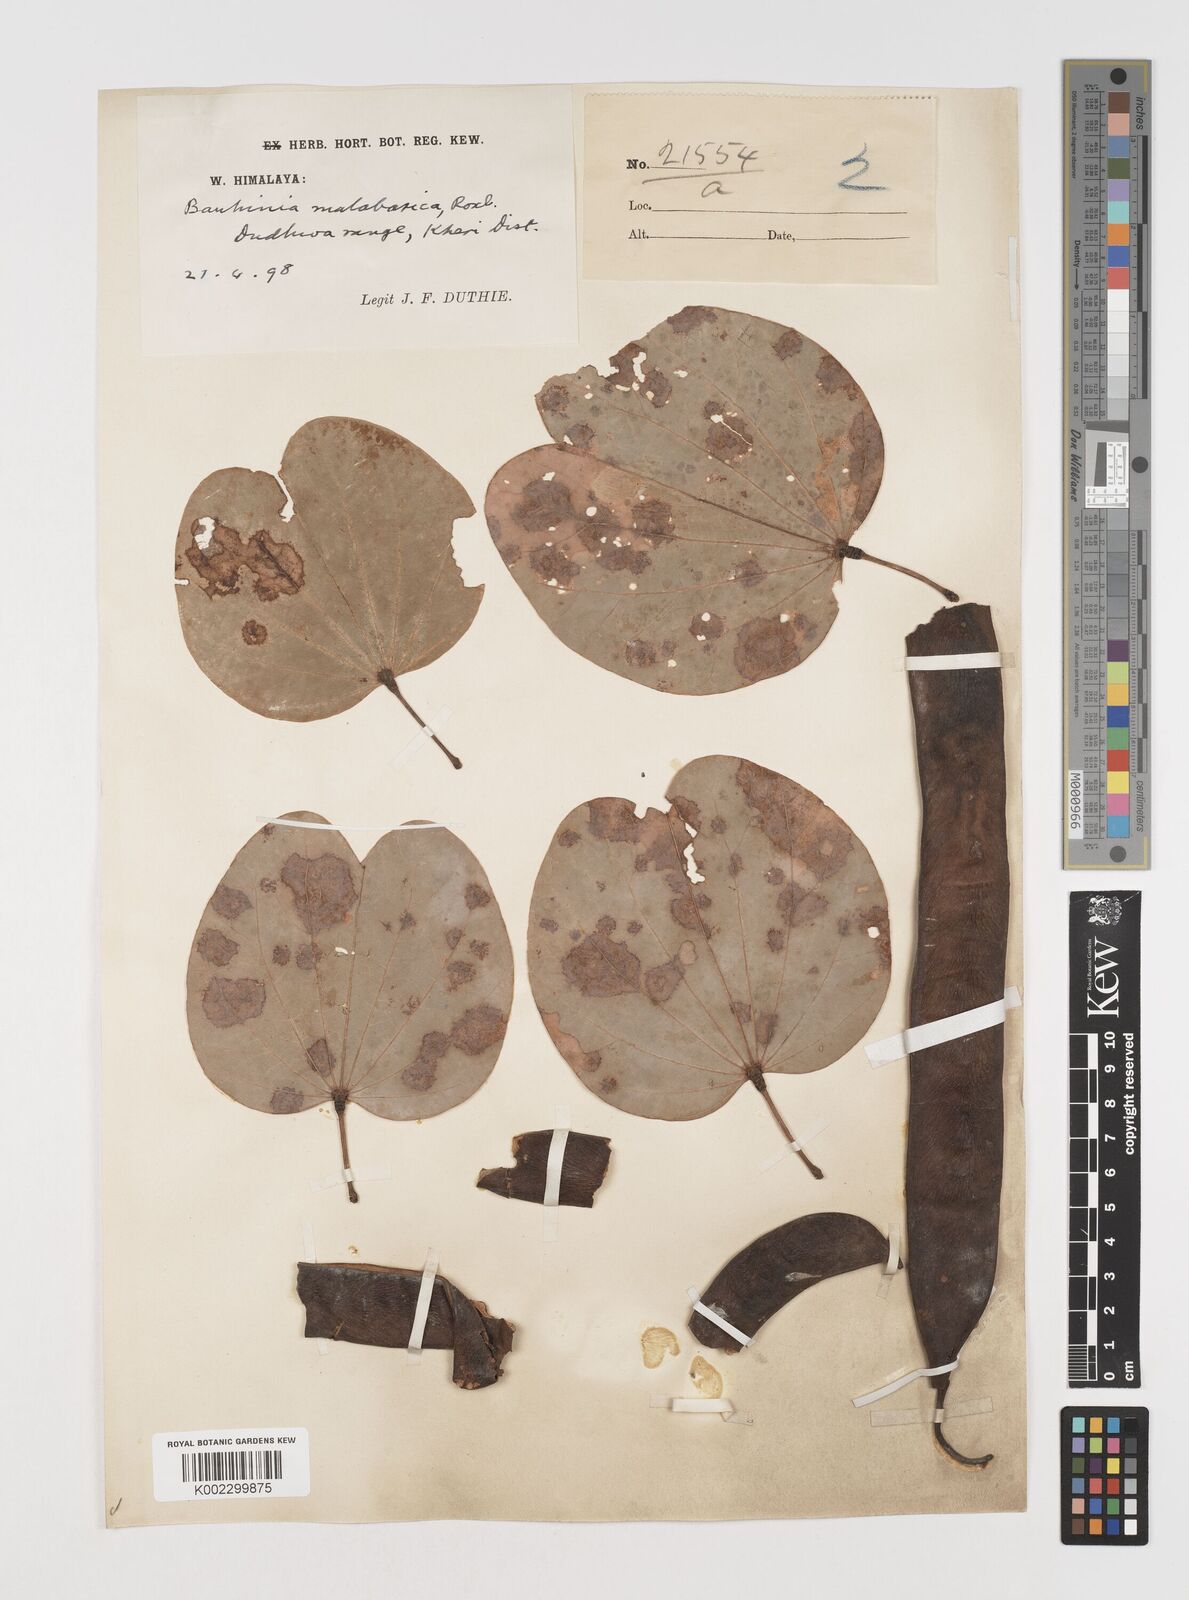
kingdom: Plantae
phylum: Tracheophyta
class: Magnoliopsida
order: Fabales
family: Fabaceae
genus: Piliostigma
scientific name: Piliostigma malabaricum
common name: Malabar bauhinia
